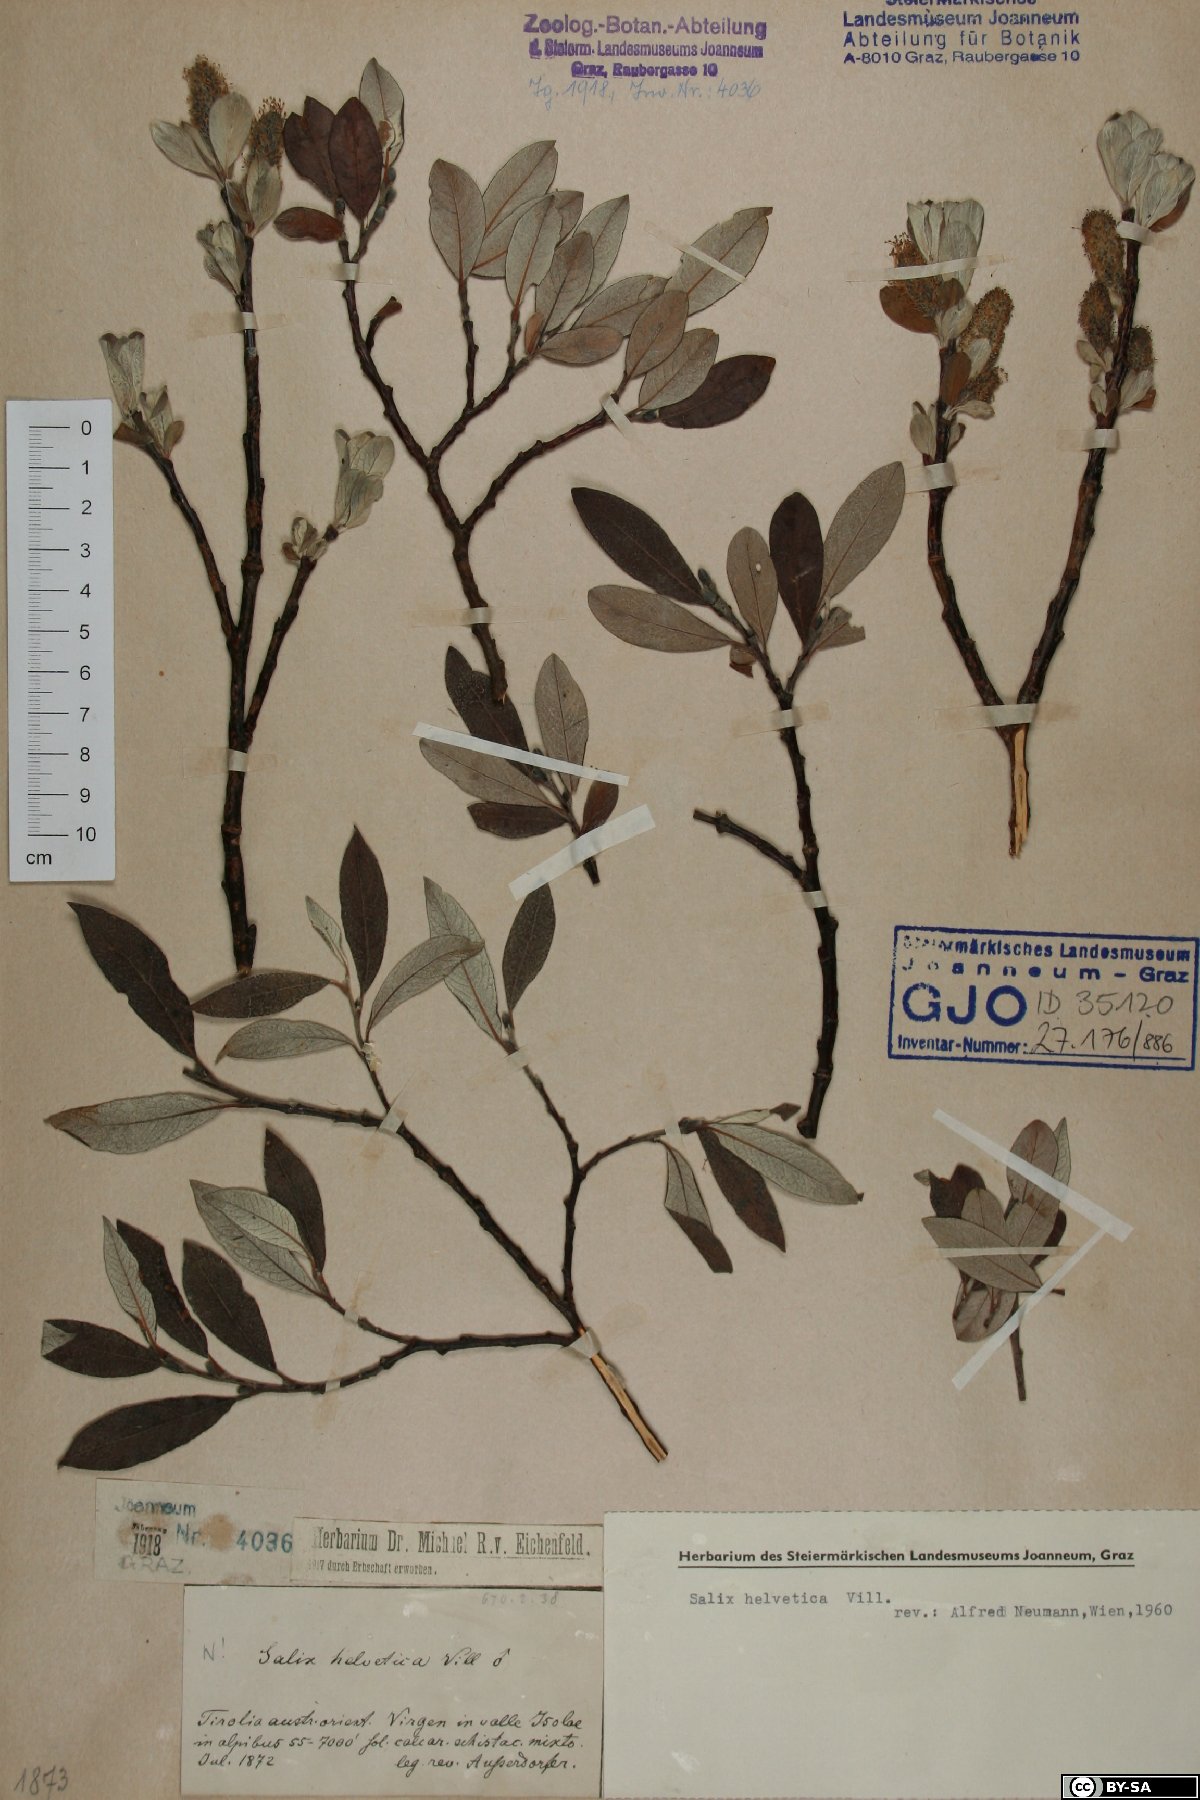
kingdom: Plantae
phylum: Tracheophyta
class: Magnoliopsida
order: Malpighiales
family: Salicaceae
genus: Salix
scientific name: Salix helvetica
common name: Swiss willow
